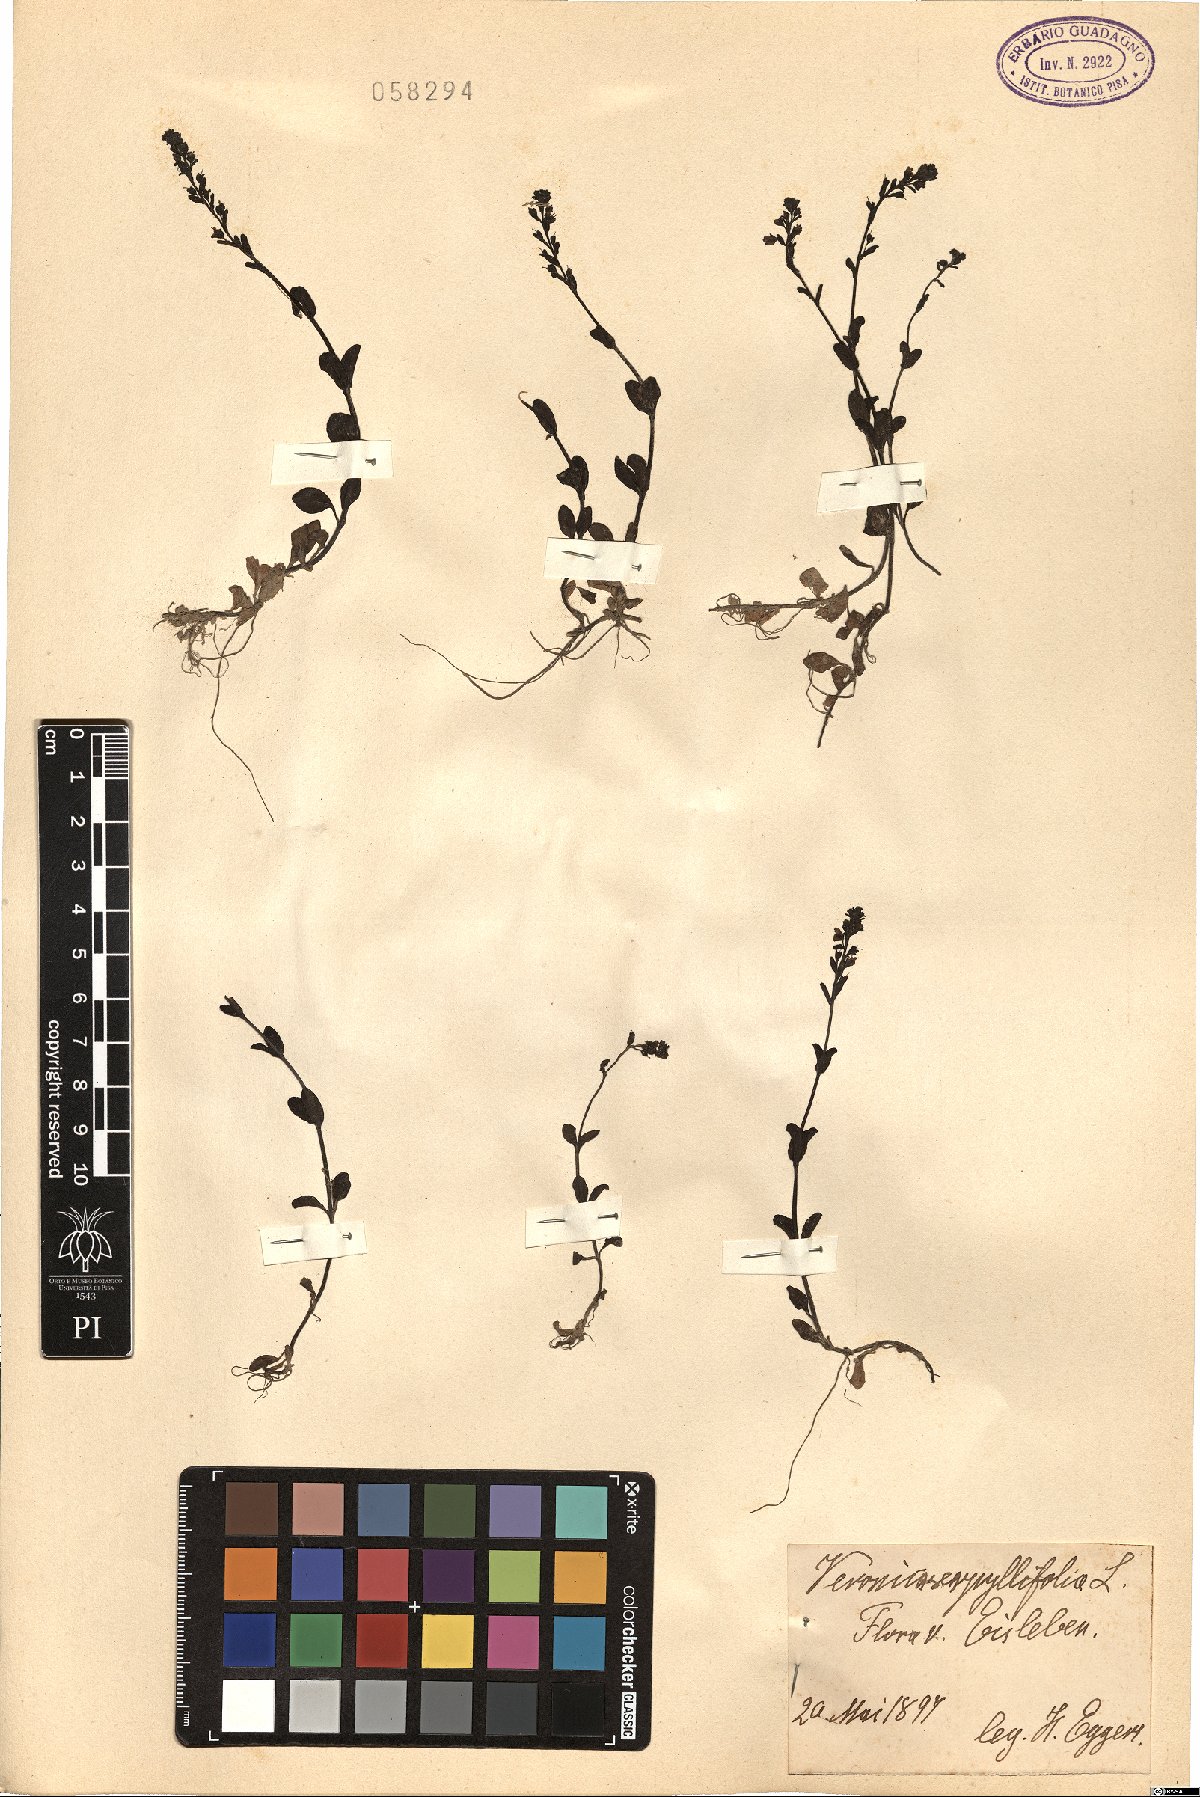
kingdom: Plantae
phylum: Tracheophyta
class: Magnoliopsida
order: Lamiales
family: Plantaginaceae
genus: Veronica
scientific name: Veronica serpyllifolia
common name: Thyme-leaved speedwell
